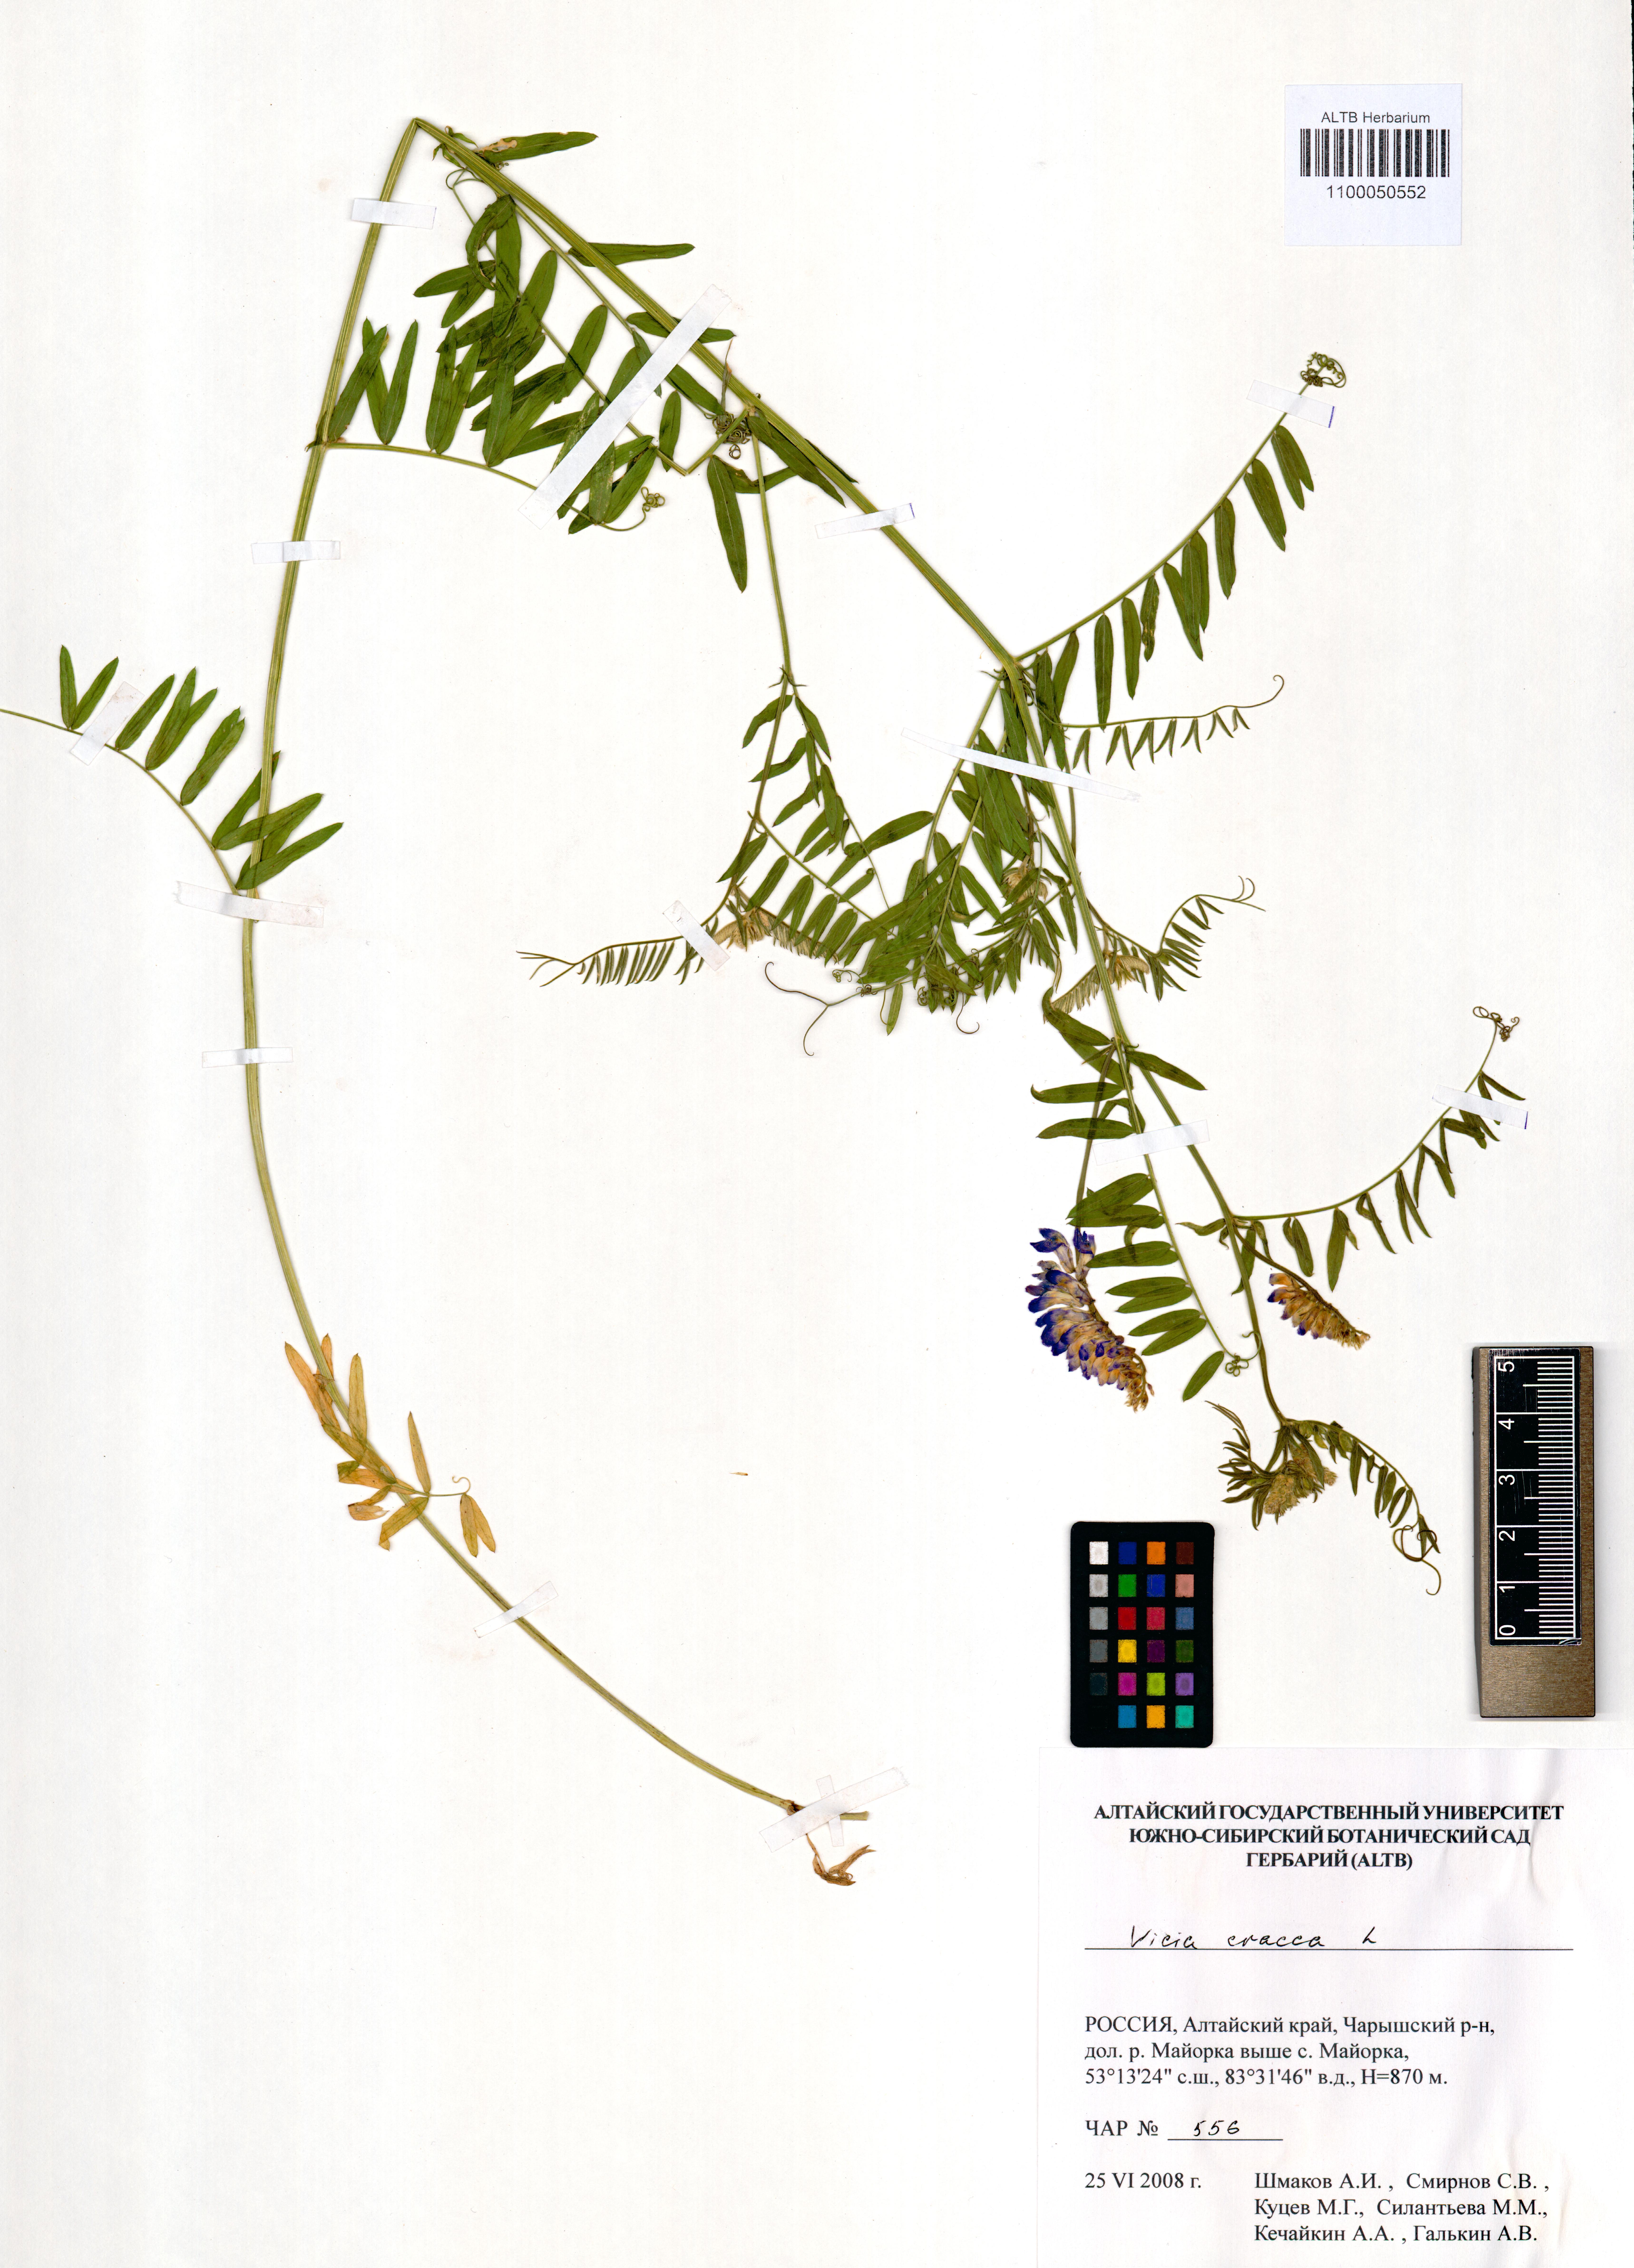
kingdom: Plantae
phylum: Tracheophyta
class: Magnoliopsida
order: Fabales
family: Fabaceae
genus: Vicia
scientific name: Vicia cracca
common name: Bird vetch
